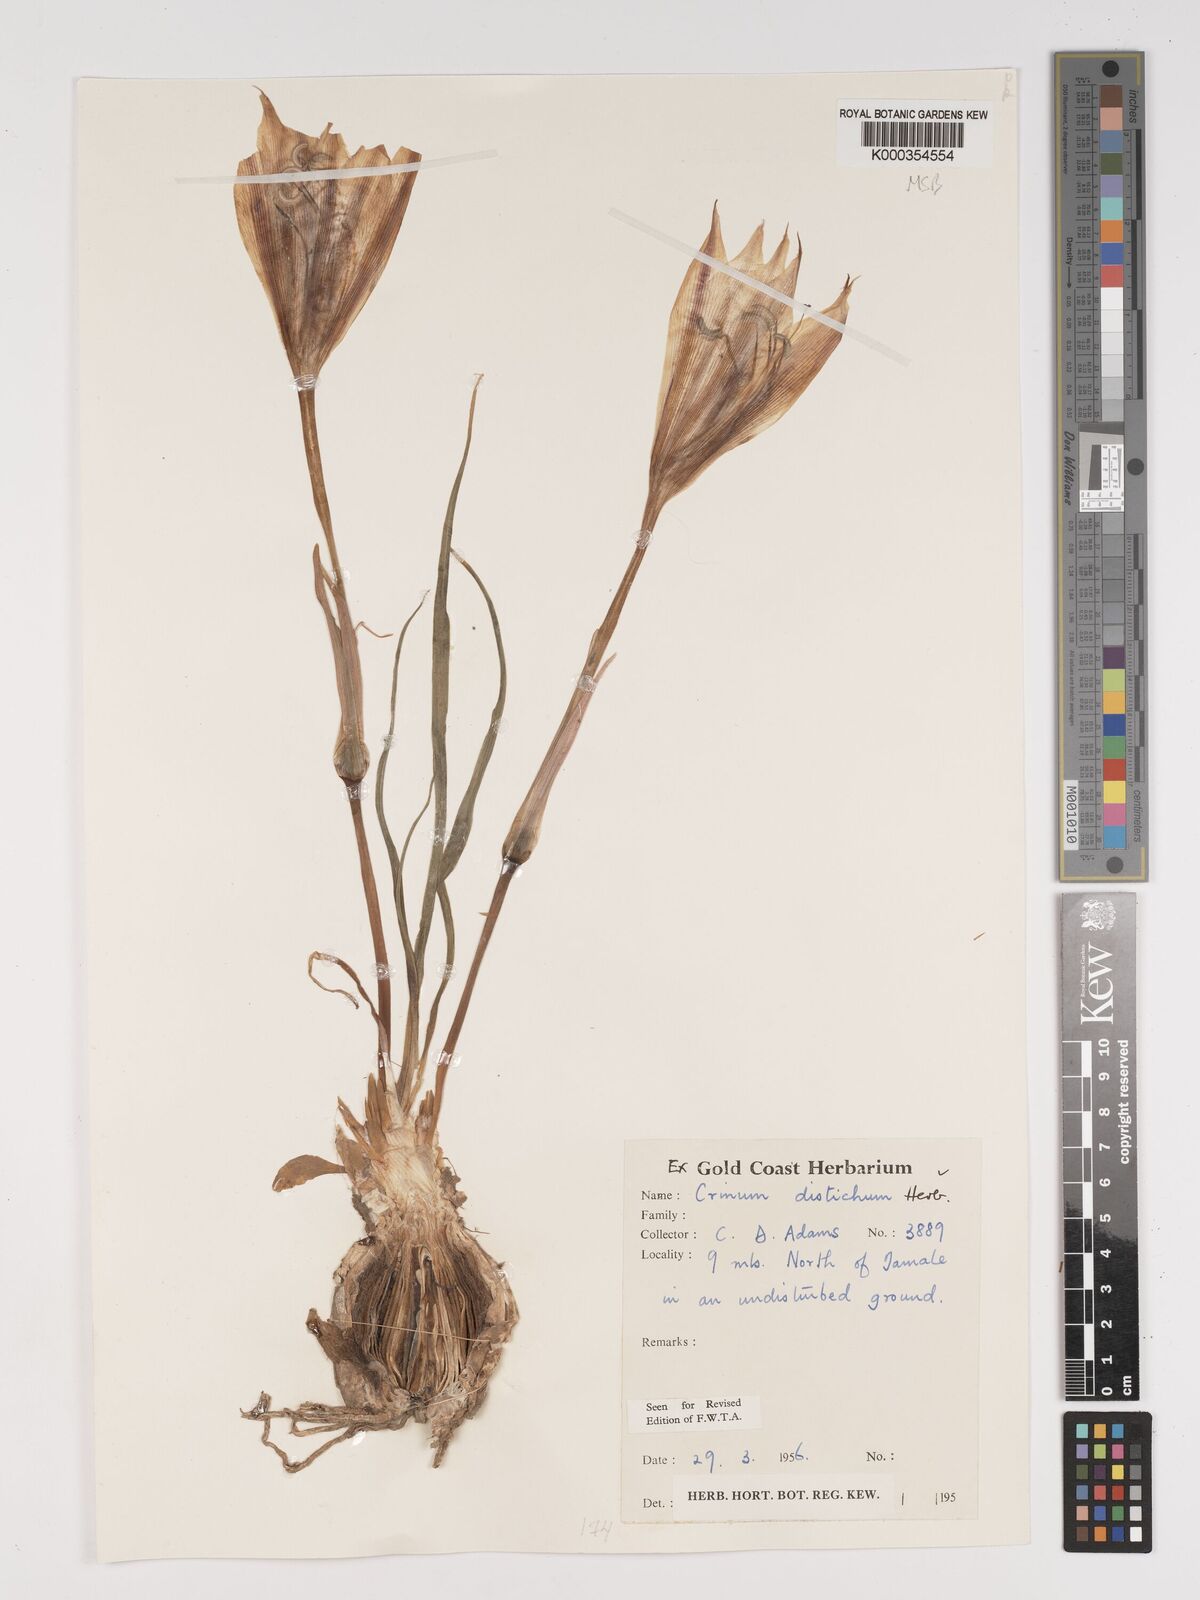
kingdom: Plantae
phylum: Tracheophyta
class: Liliopsida
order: Asparagales
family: Amaryllidaceae
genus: Crinum
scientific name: Crinum zeylanicum
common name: Ceylon swamplily
